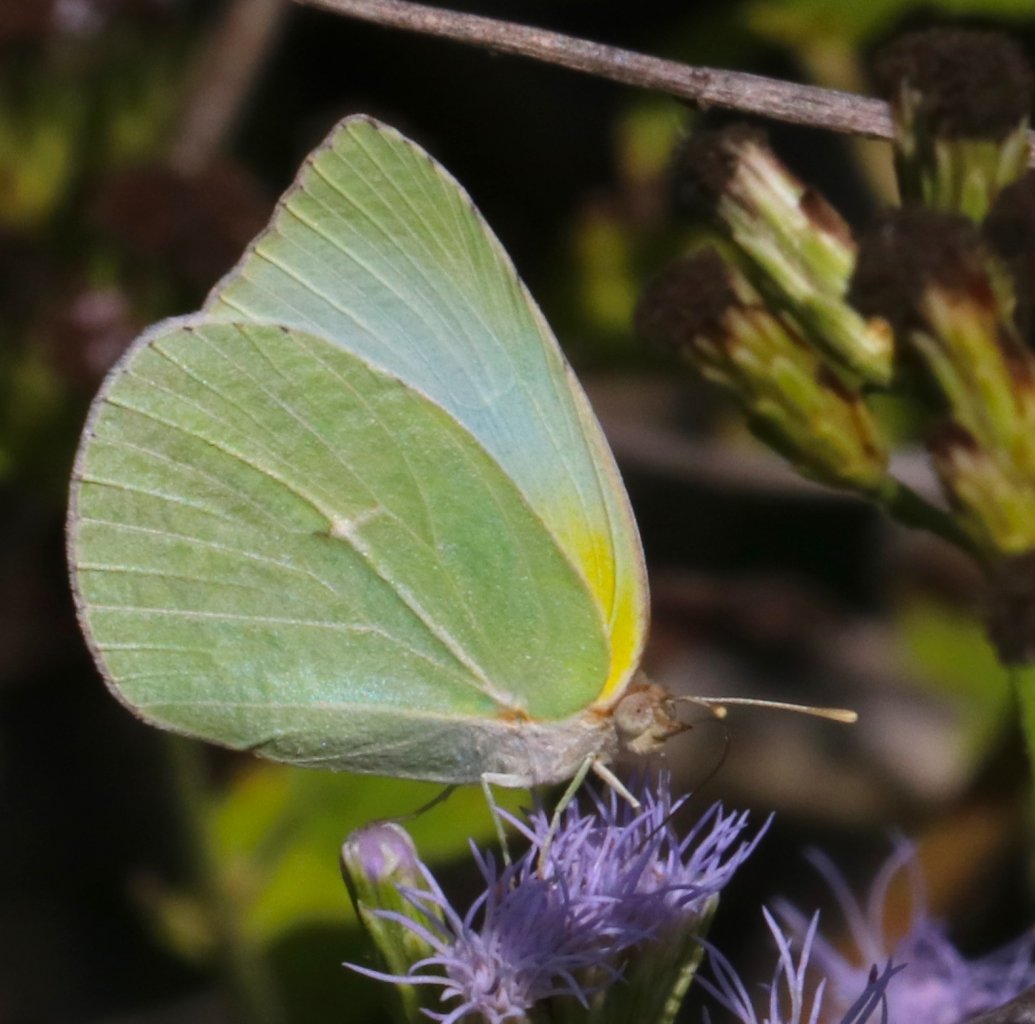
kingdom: Animalia
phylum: Arthropoda
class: Insecta
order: Lepidoptera
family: Pieridae
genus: Kricogonia
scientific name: Kricogonia lyside
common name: Lyside Sulphur
